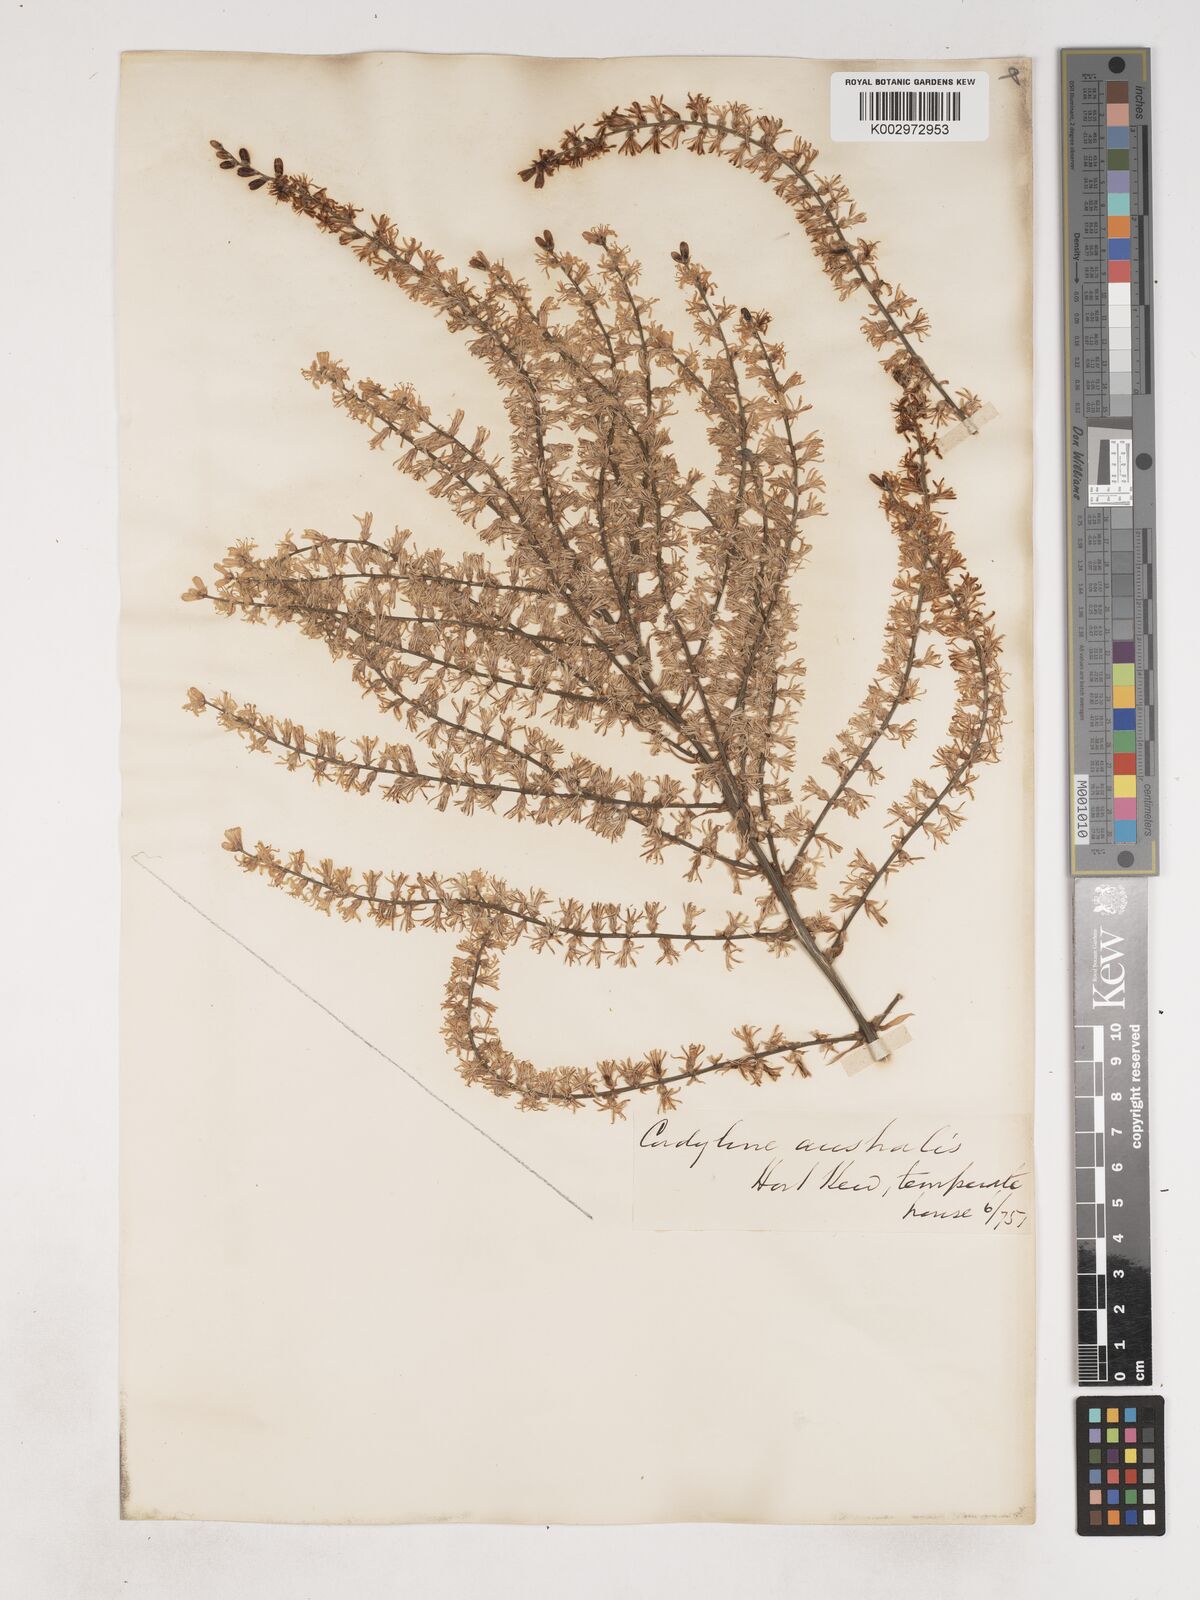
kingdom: Plantae
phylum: Tracheophyta
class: Liliopsida
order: Asparagales
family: Asparagaceae
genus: Cordyline
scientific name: Cordyline australis
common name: Cabbage-palm
